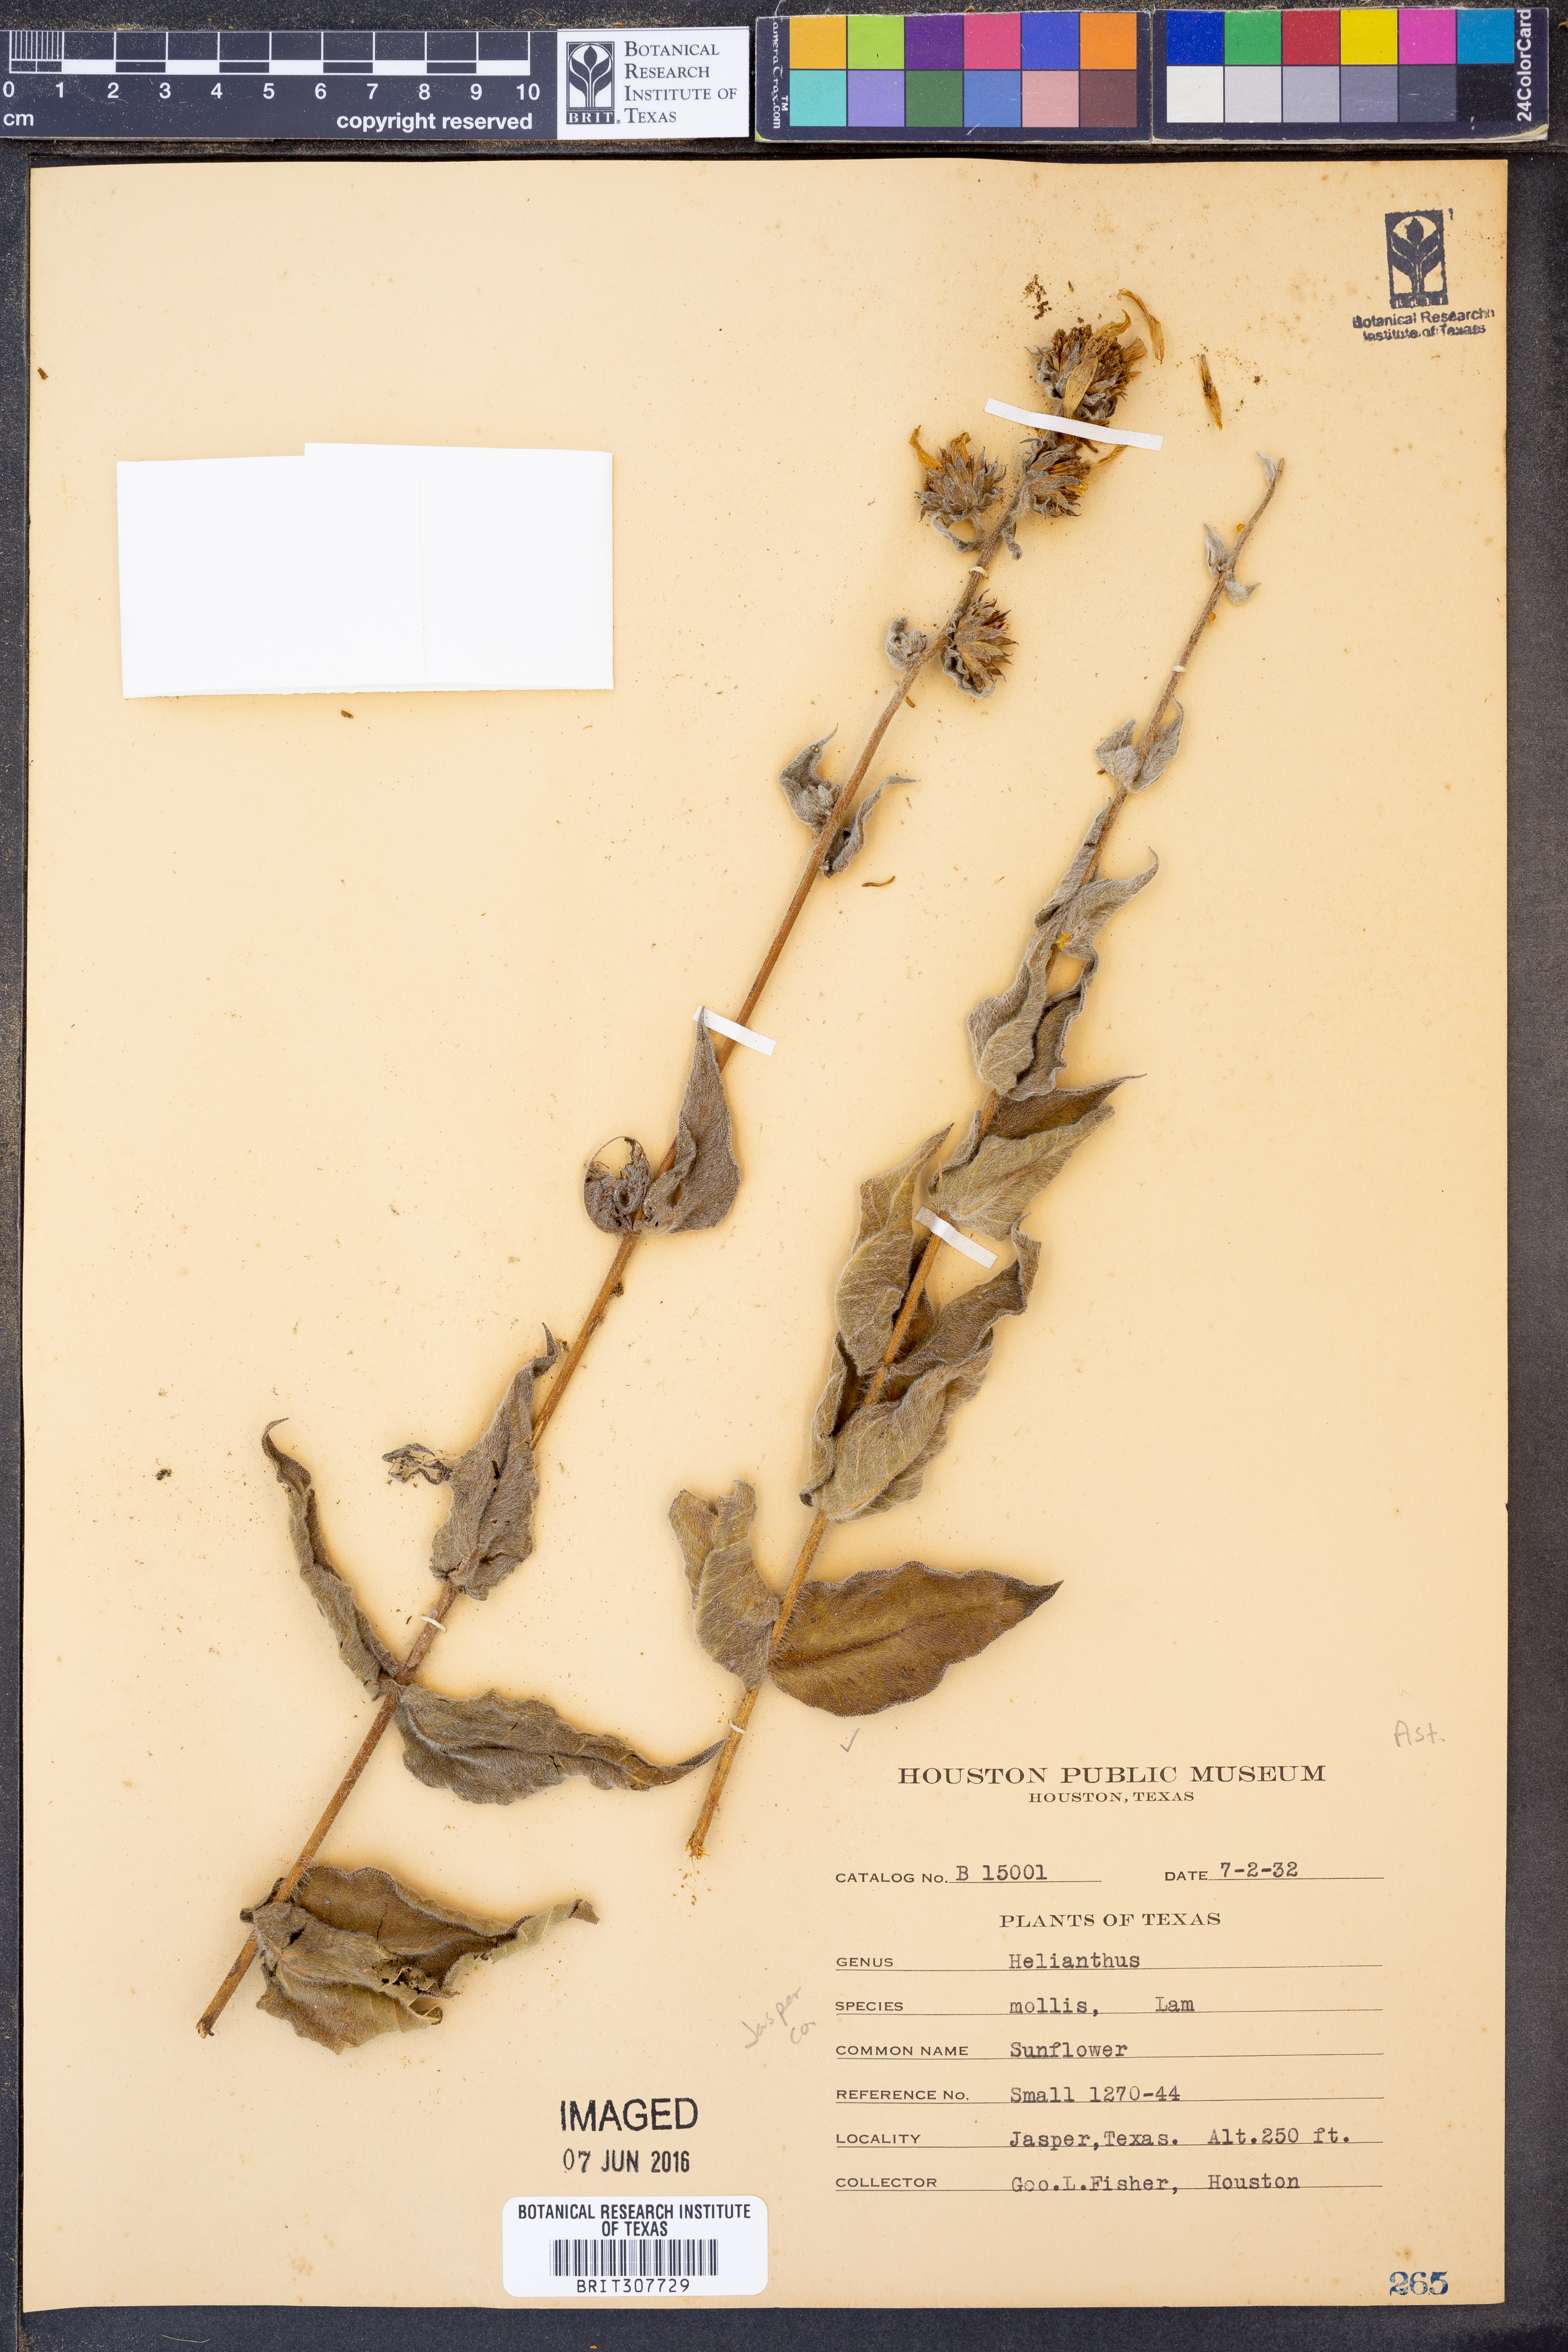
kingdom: Plantae
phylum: Tracheophyta
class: Magnoliopsida
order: Asterales
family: Asteraceae
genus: Helianthus
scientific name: Helianthus mollis
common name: Ashy sunflower
